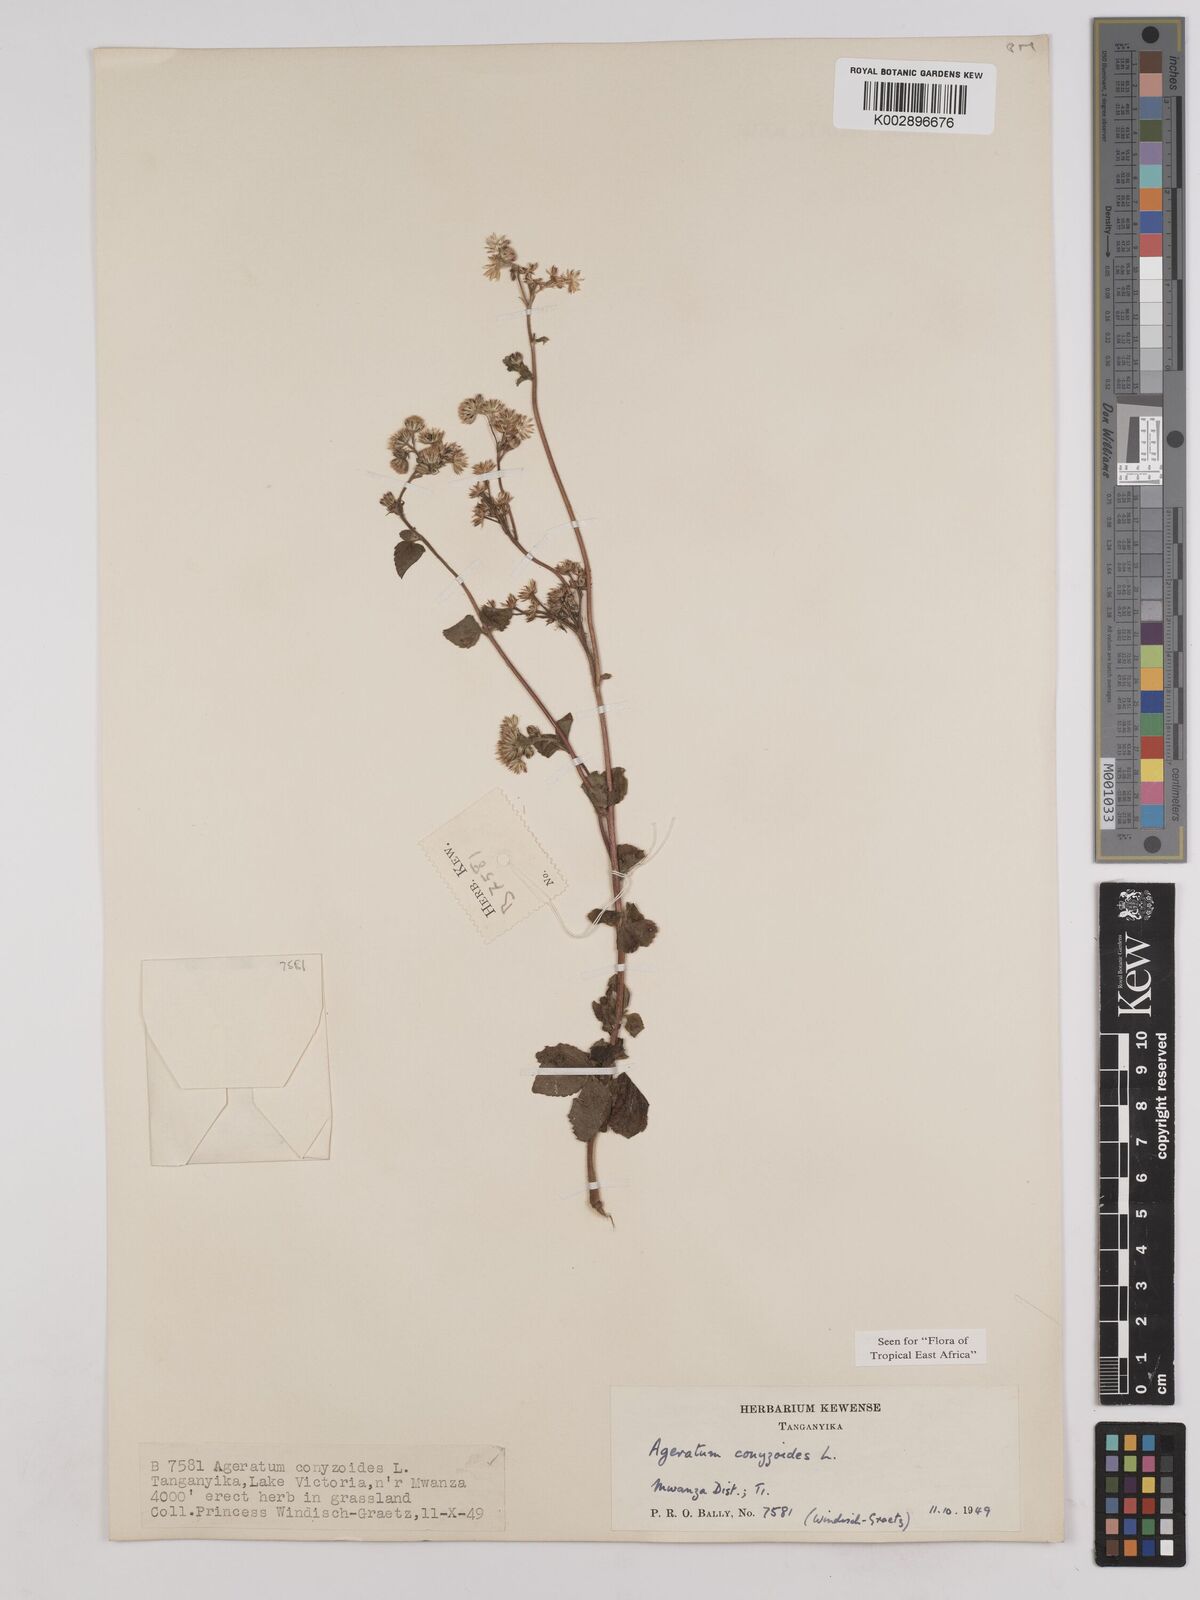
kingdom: Plantae
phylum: Tracheophyta
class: Magnoliopsida
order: Asterales
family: Asteraceae
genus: Ageratum
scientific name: Ageratum conyzoides
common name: Tropical whiteweed
